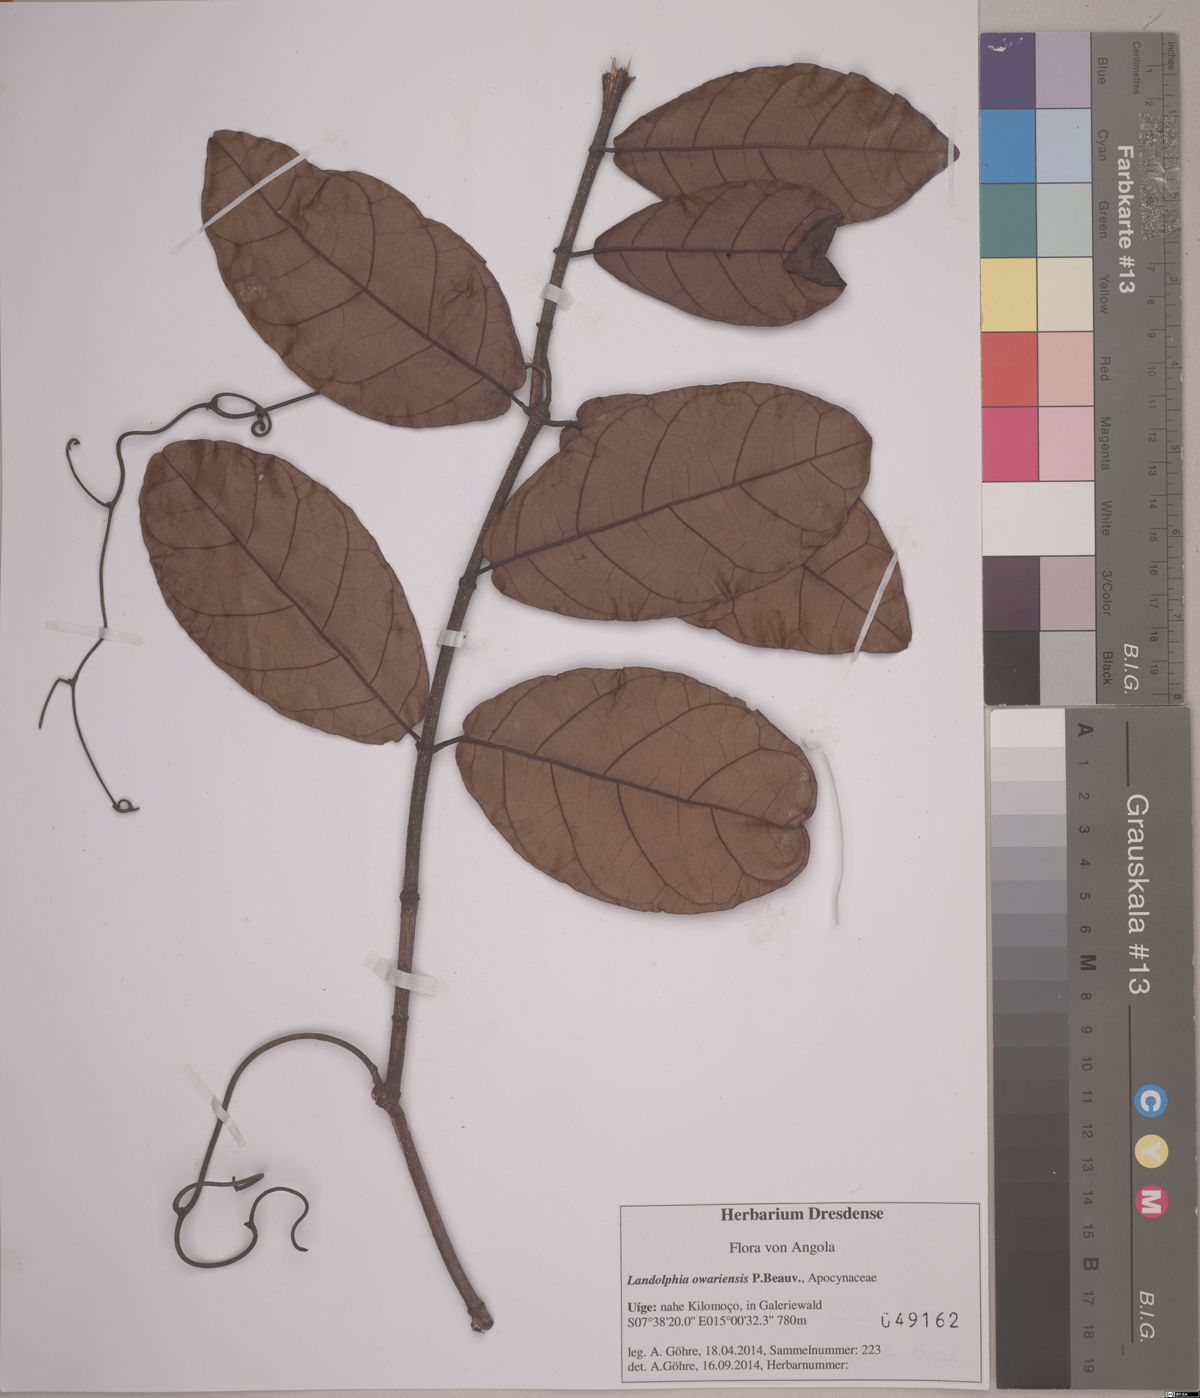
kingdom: Plantae
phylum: Tracheophyta
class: Magnoliopsida
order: Gentianales
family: Apocynaceae
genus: Landolphia
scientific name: Landolphia owariensis
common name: White-ball-rubber
